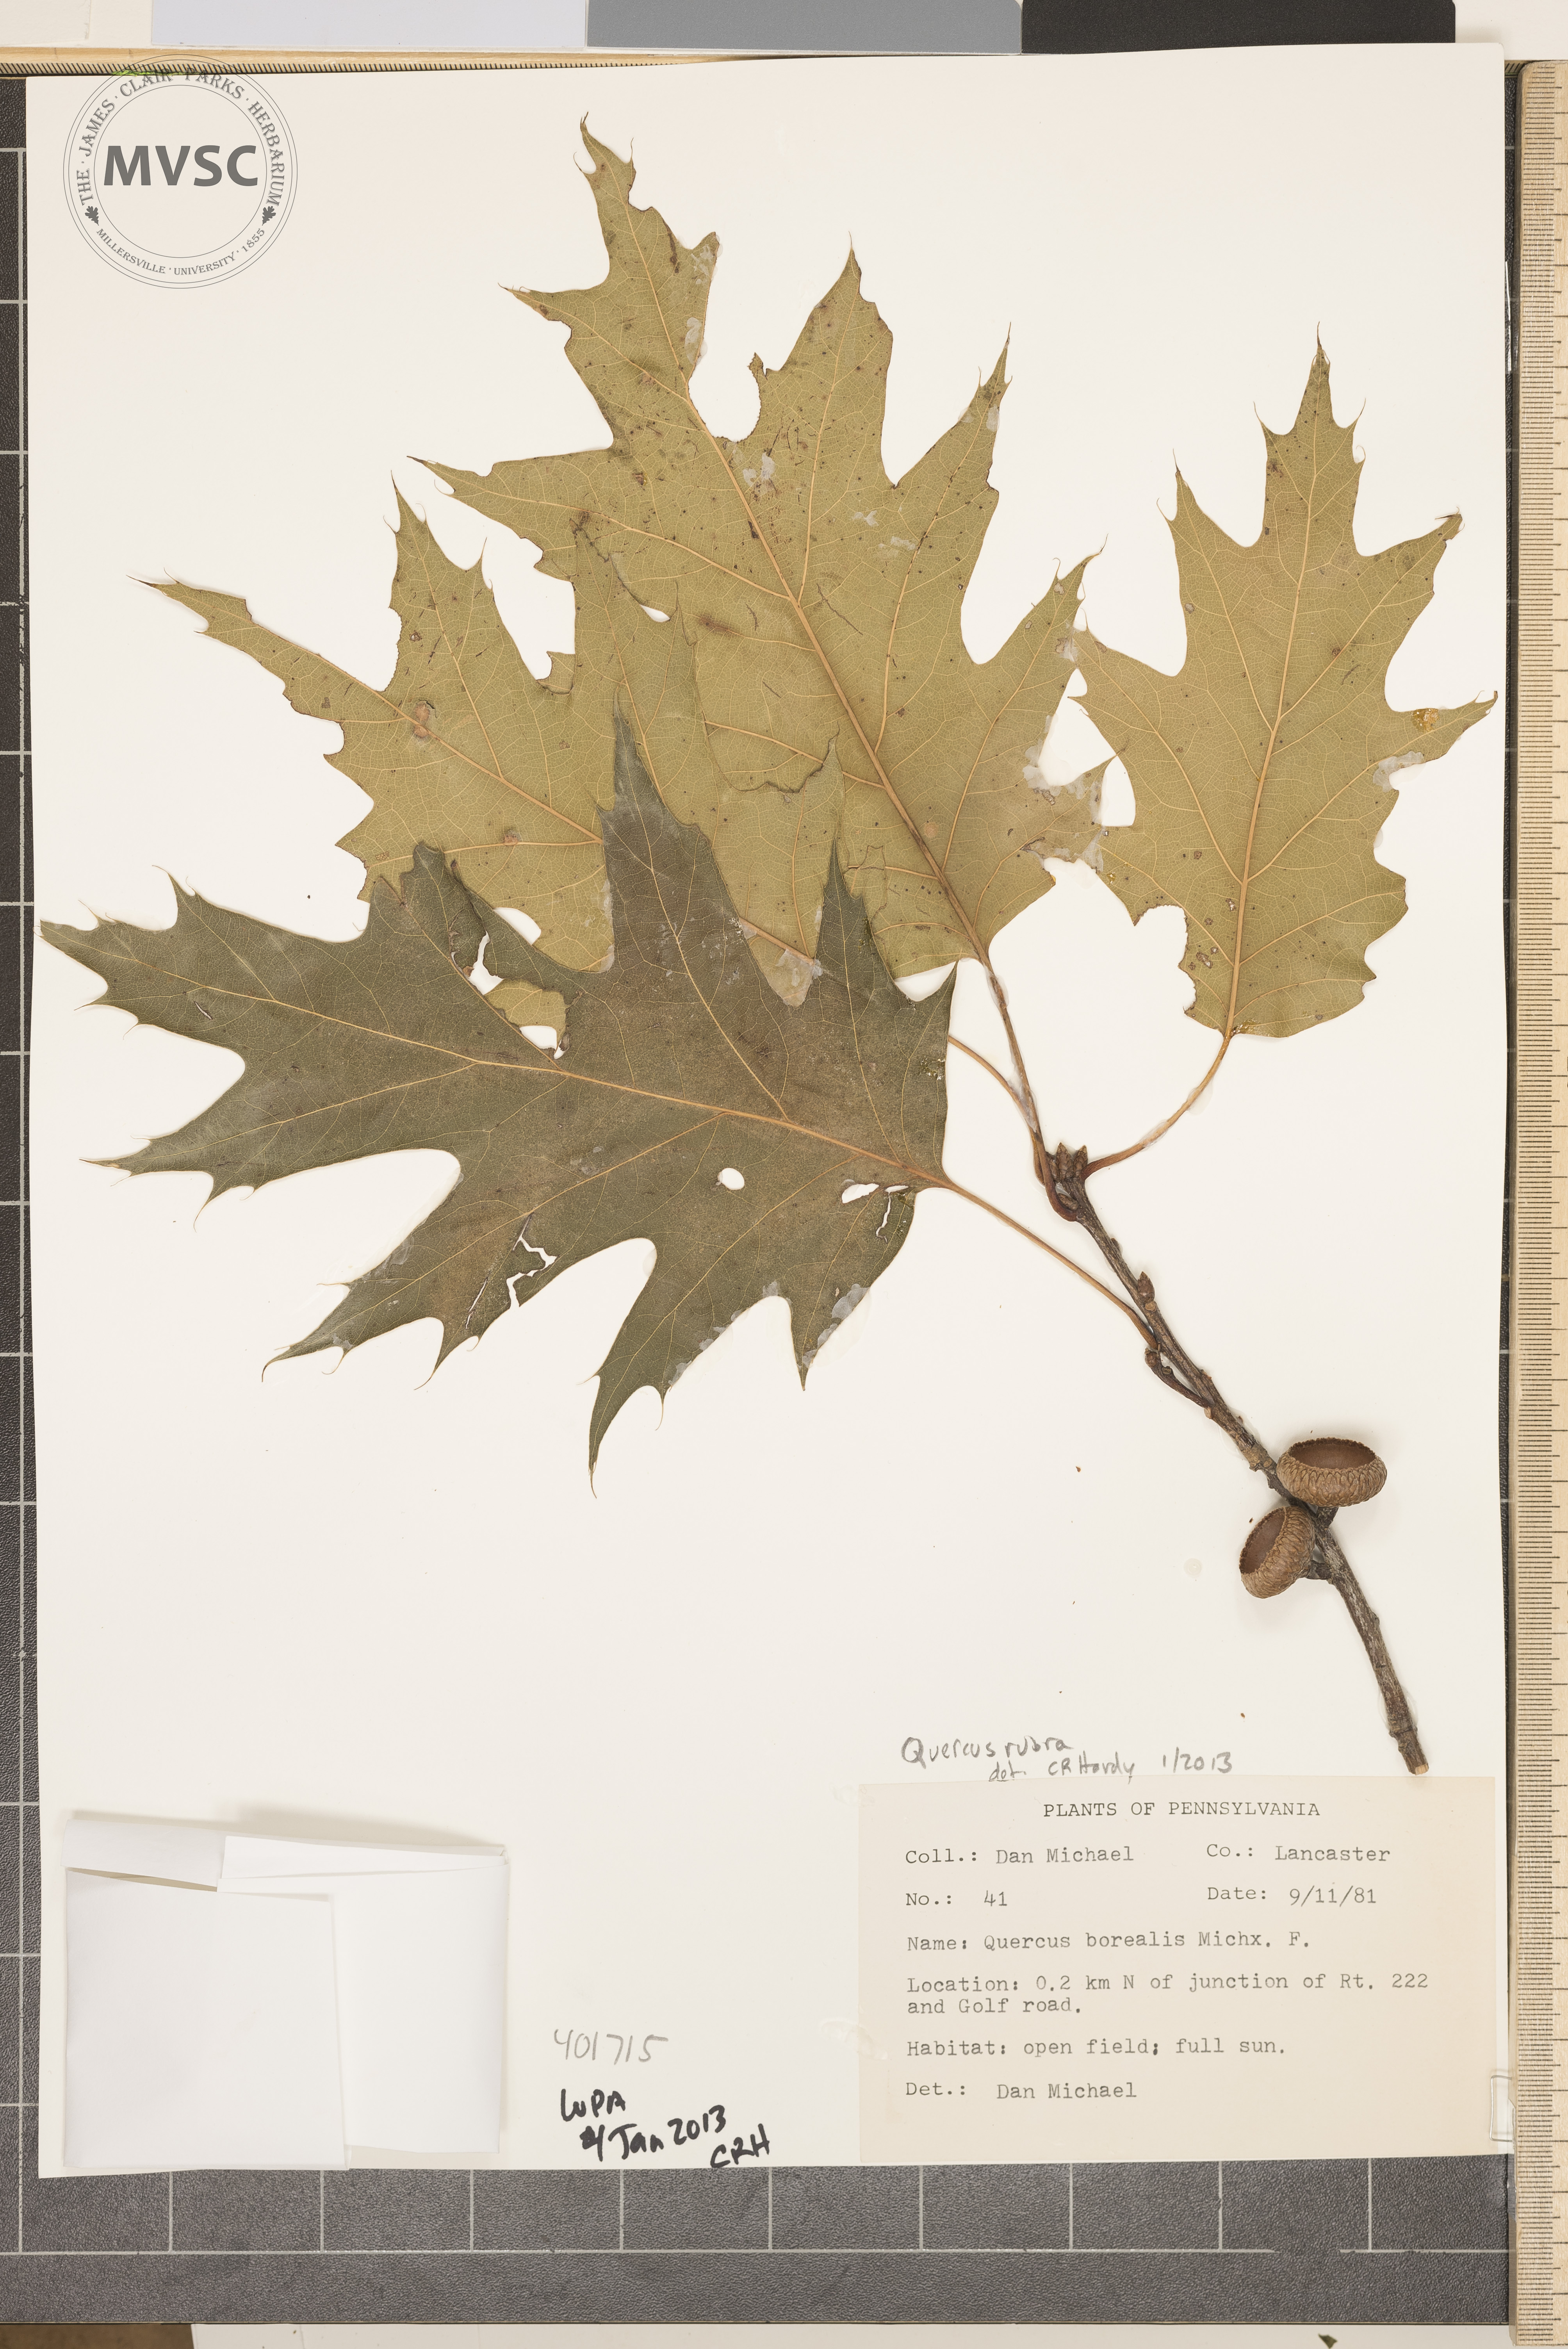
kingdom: Plantae
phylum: Tracheophyta
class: Magnoliopsida
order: Fagales
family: Fagaceae
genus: Quercus
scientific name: Quercus rubra
